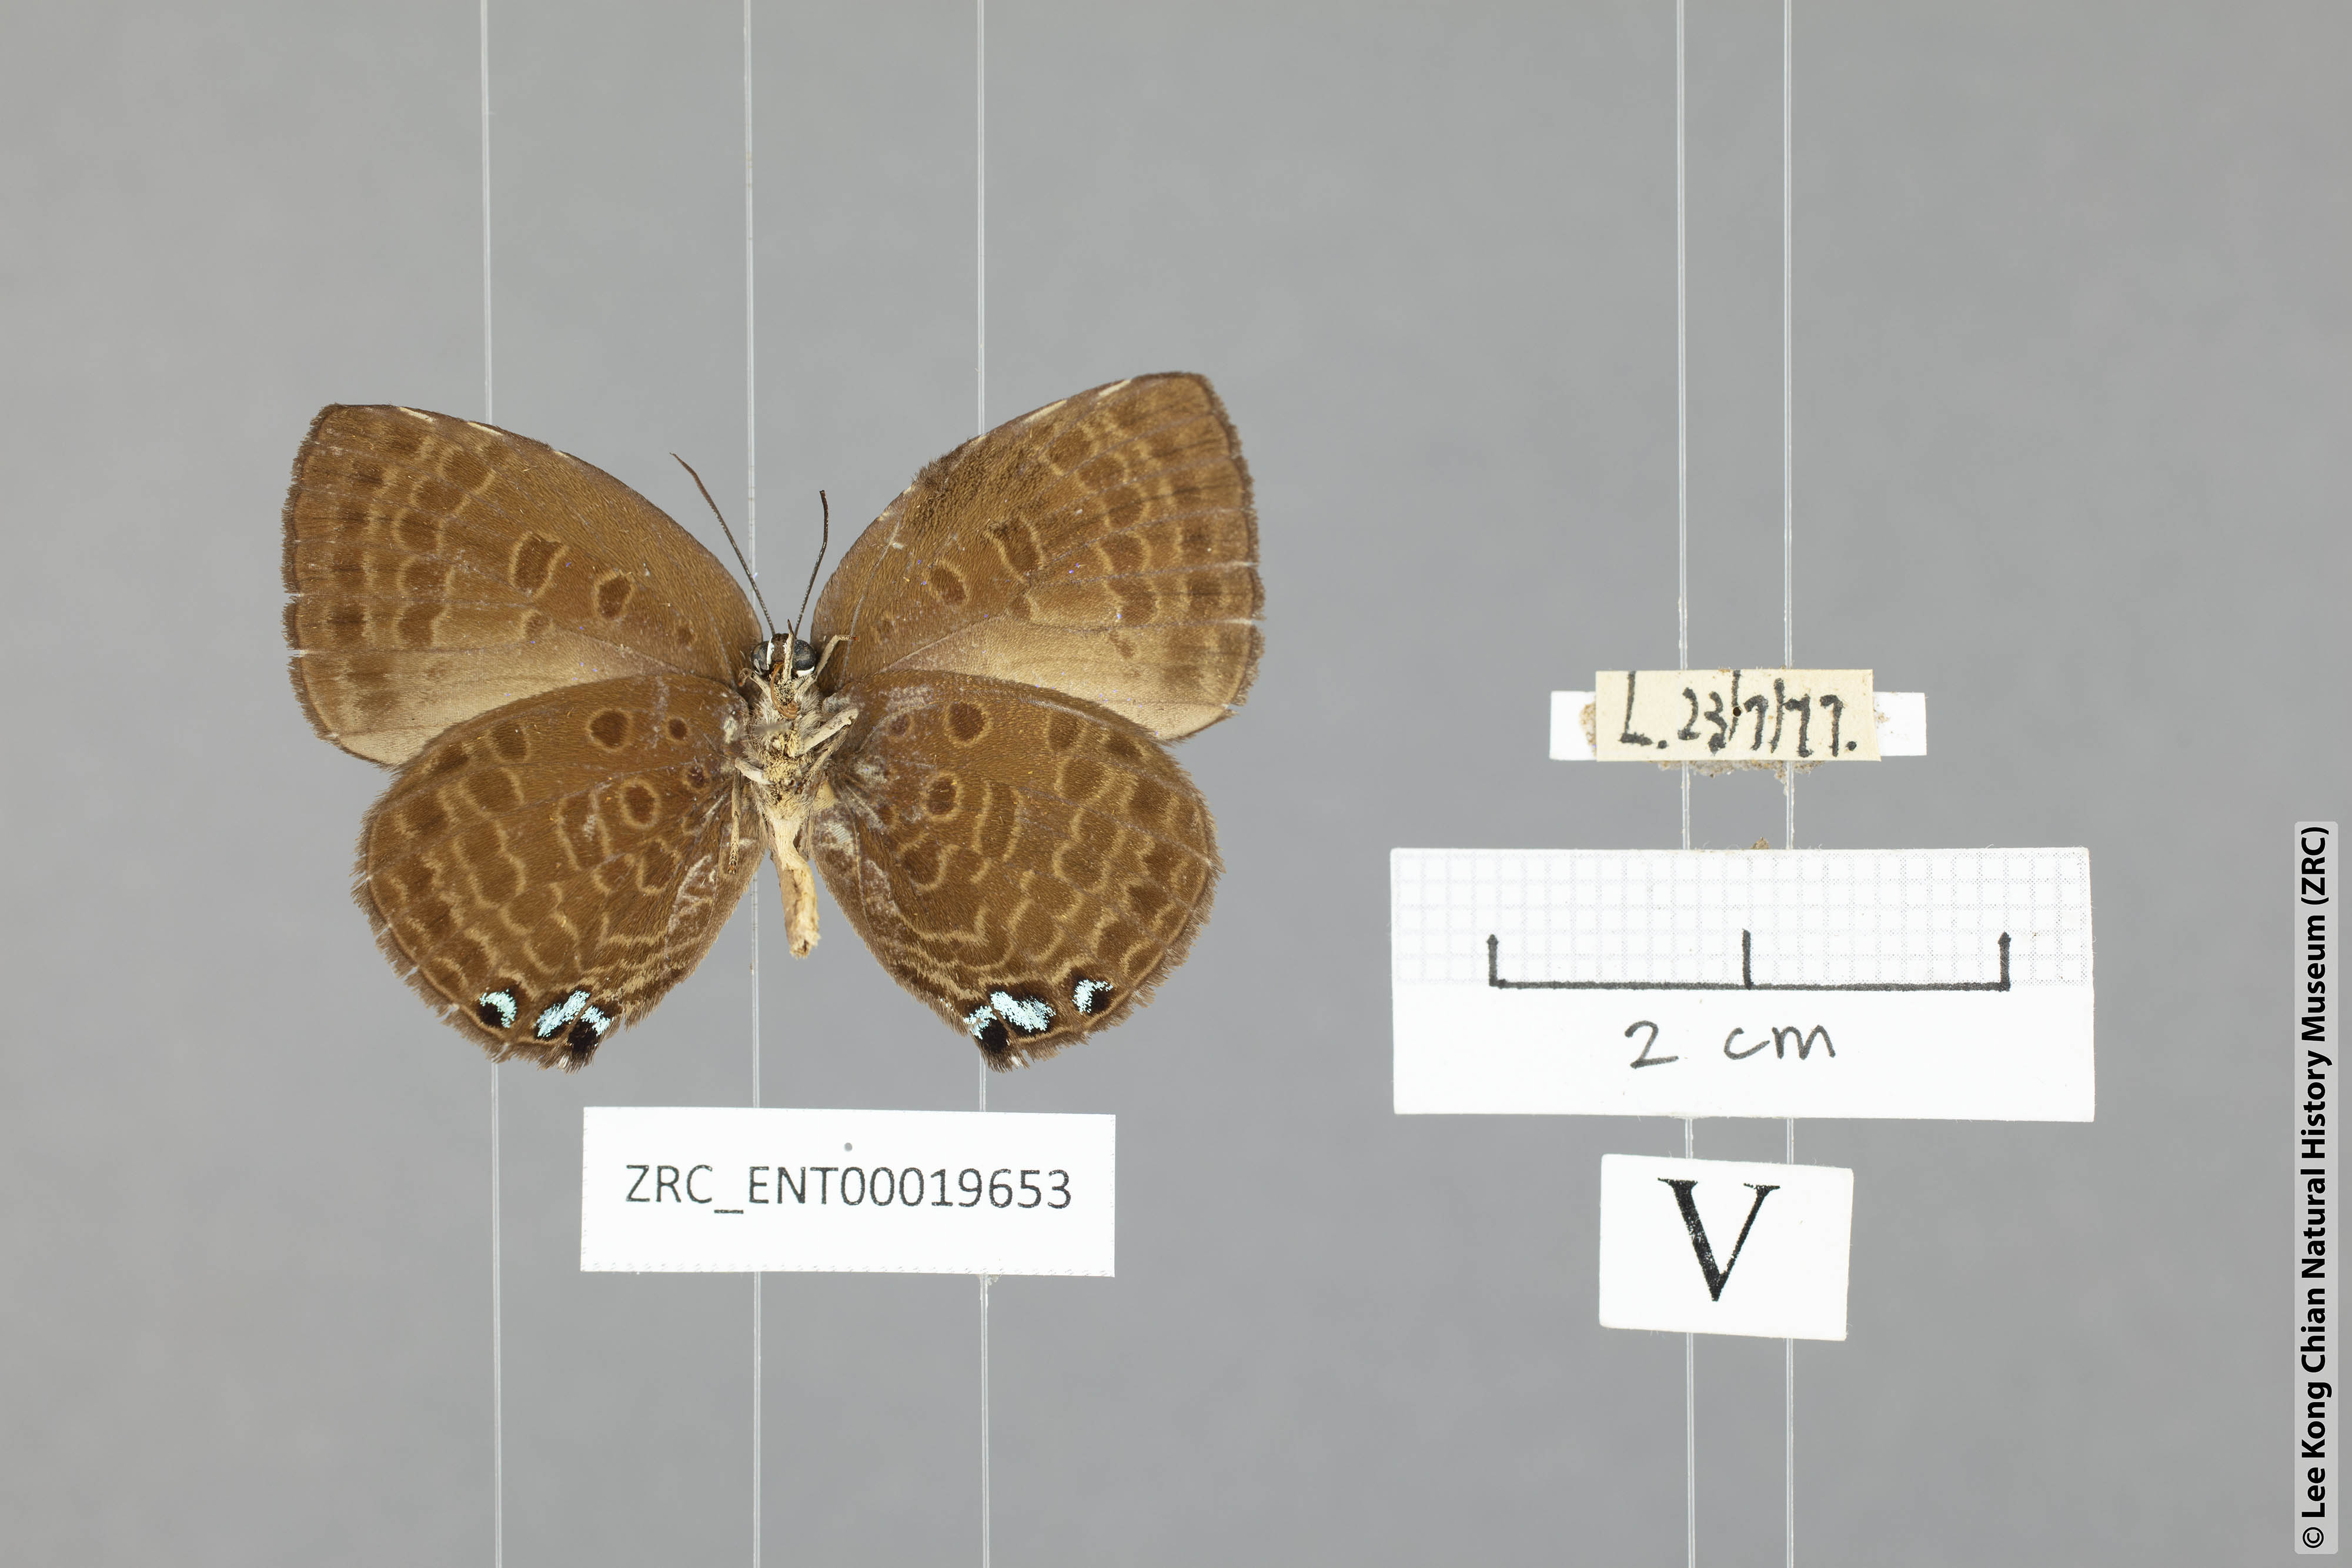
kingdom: Animalia
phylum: Arthropoda
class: Insecta
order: Lepidoptera
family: Lycaenidae
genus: Arhopala
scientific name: Arhopala moolaina
